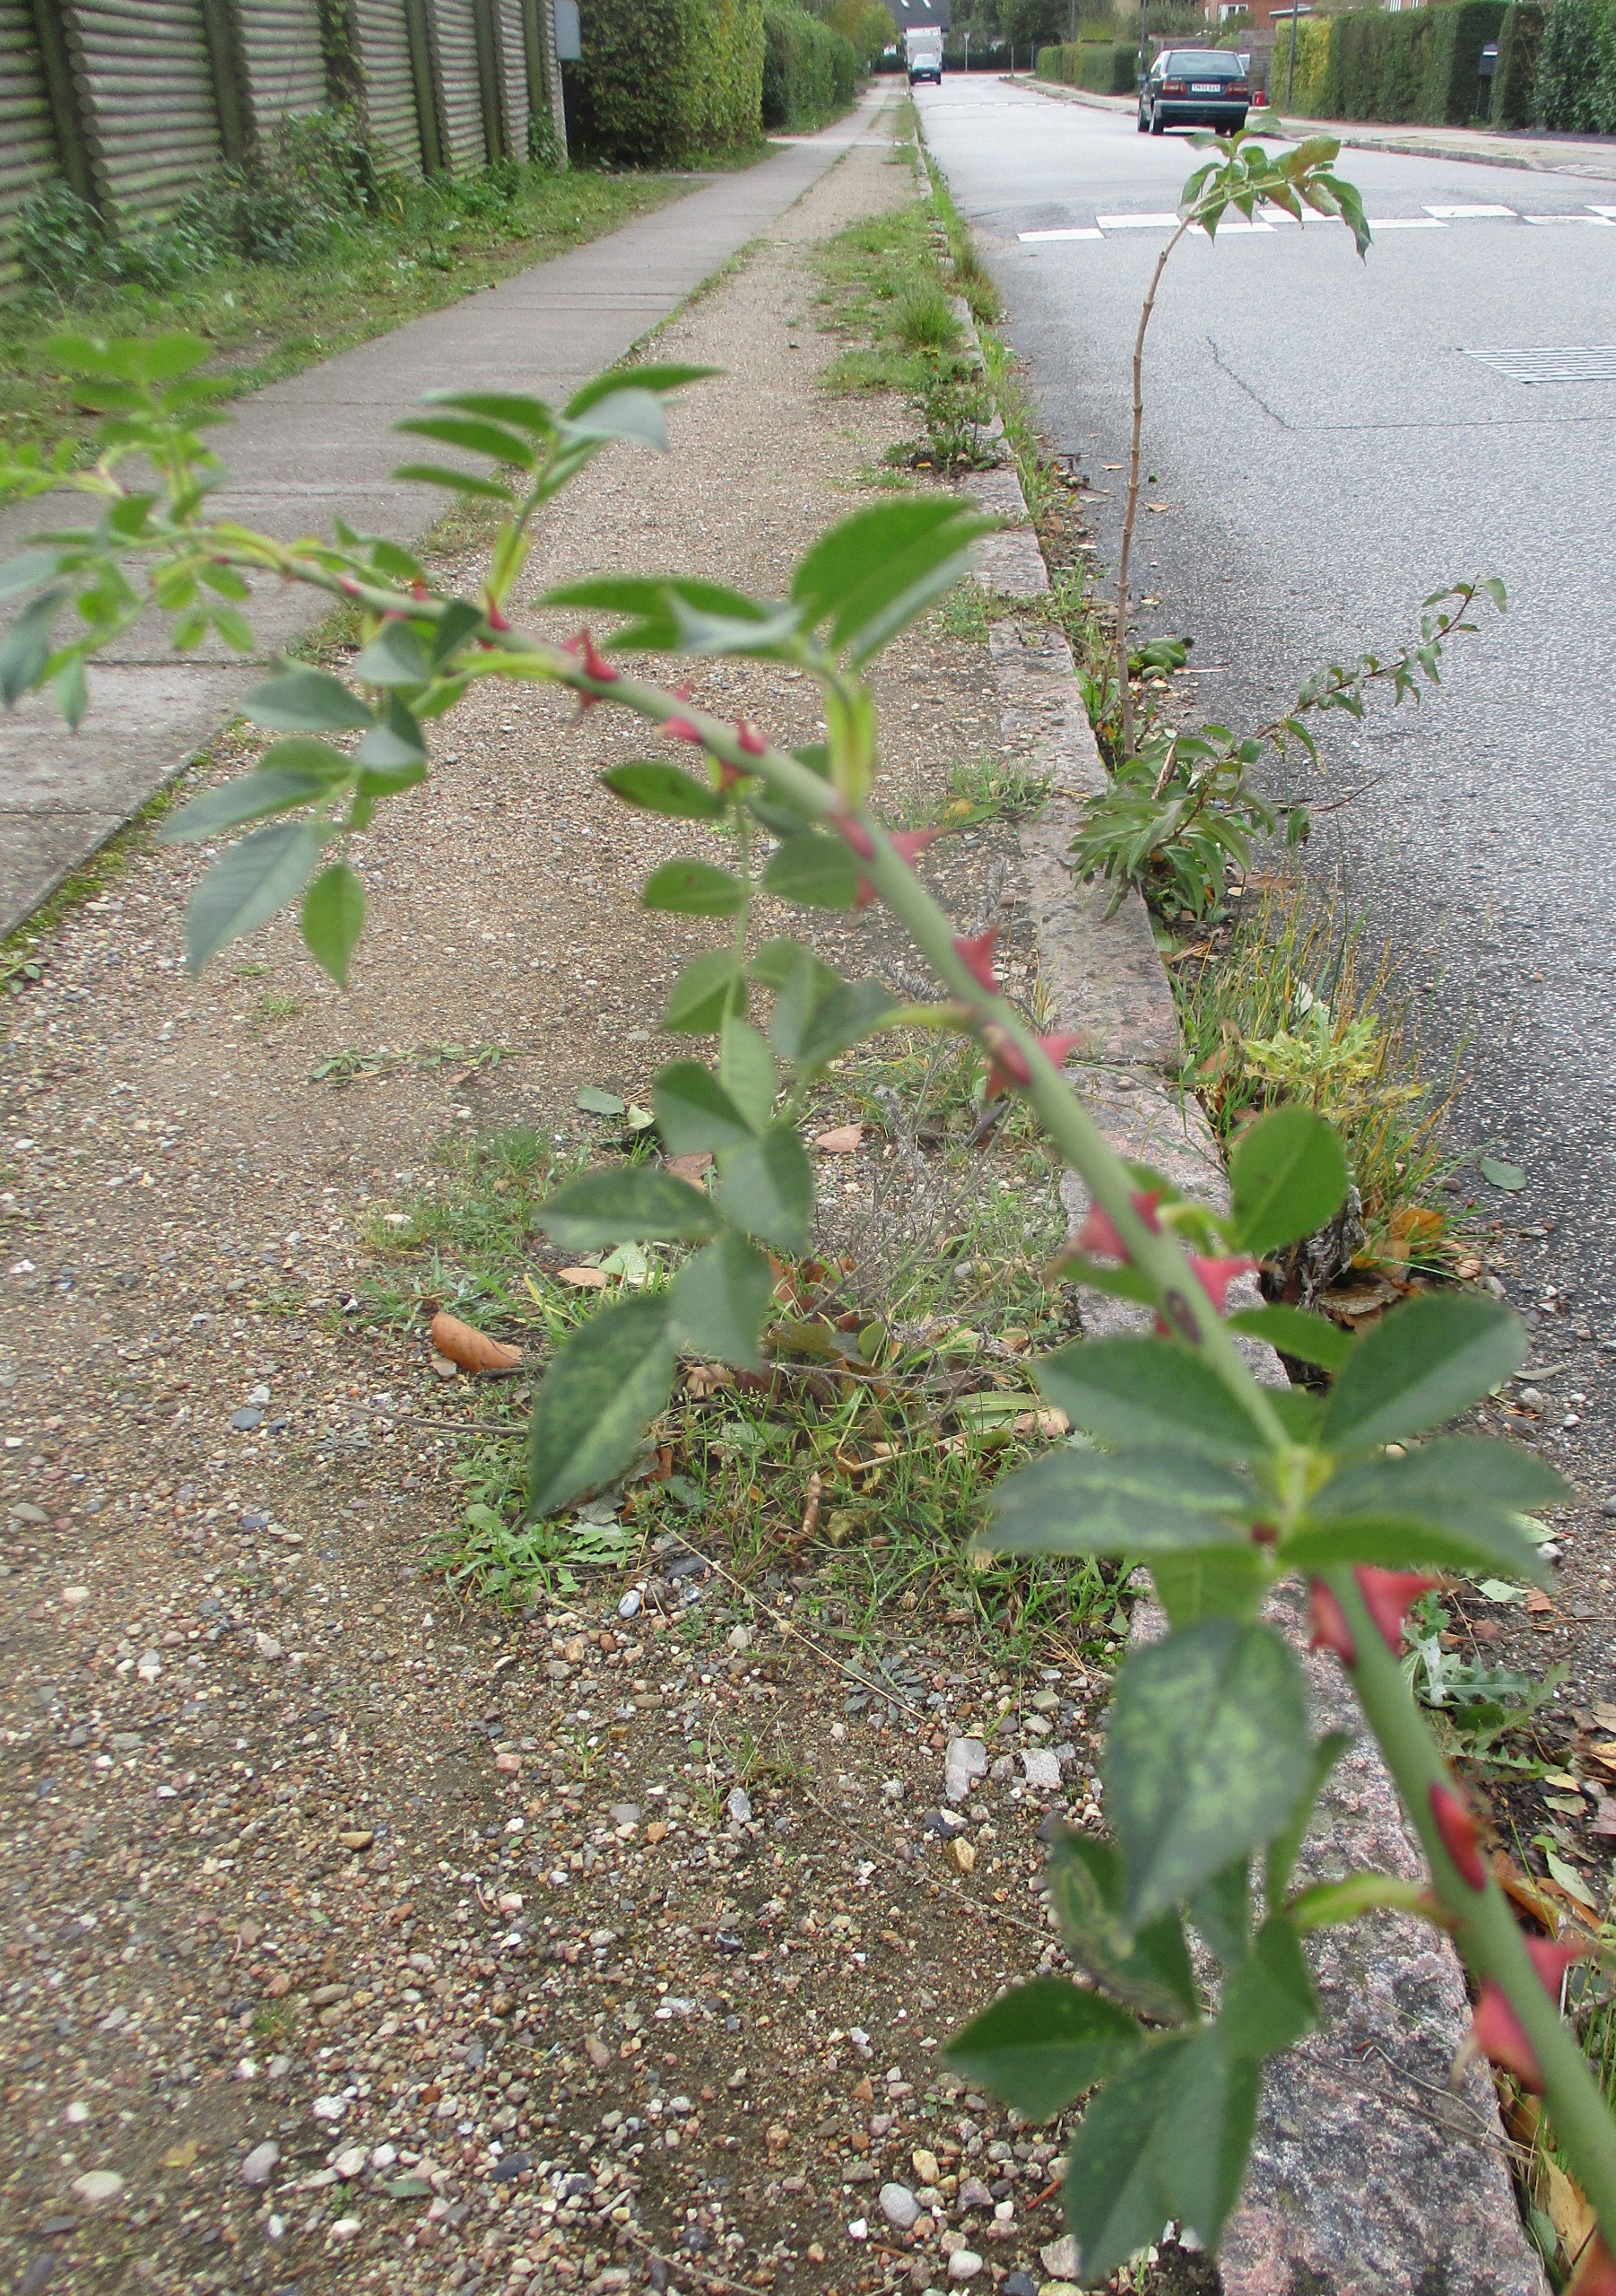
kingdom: Plantae
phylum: Tracheophyta
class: Magnoliopsida
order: Rosales
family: Rosaceae
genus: Rosa
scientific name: Rosa
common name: Roseslægten
